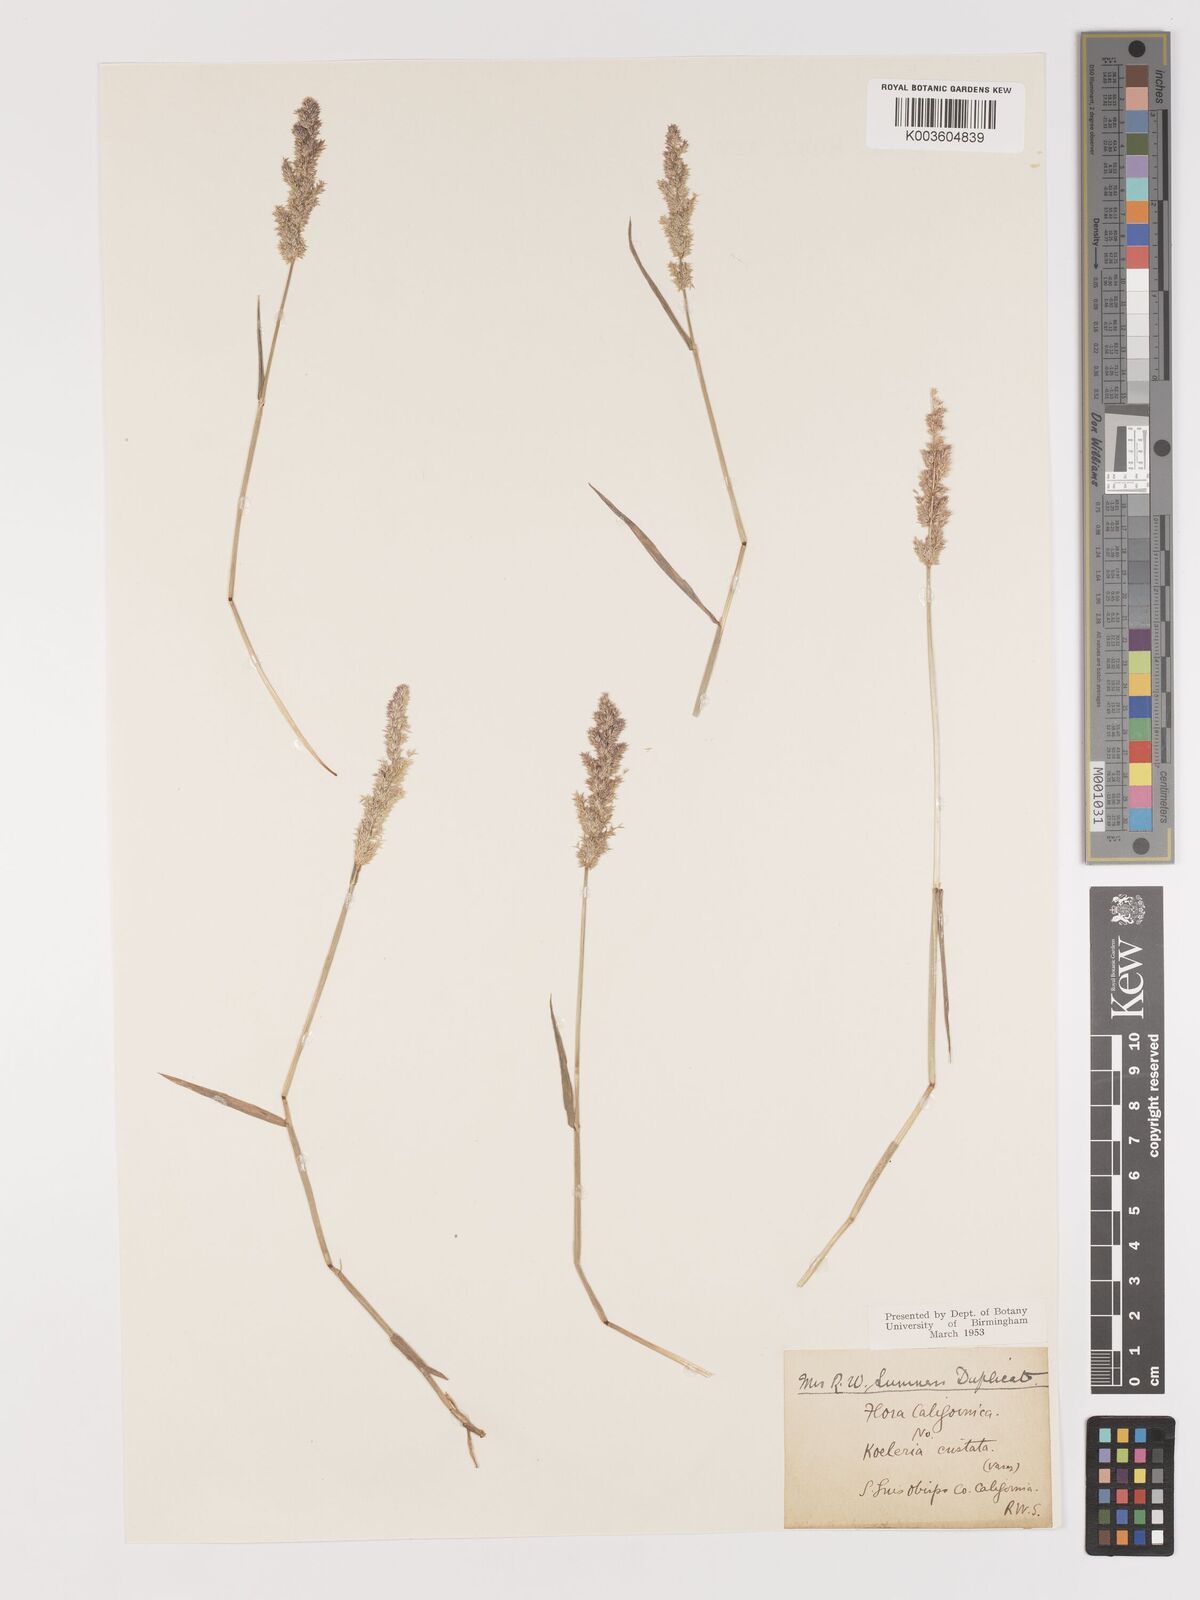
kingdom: Plantae
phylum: Tracheophyta
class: Liliopsida
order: Poales
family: Poaceae
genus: Agrostis
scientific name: Agrostis
